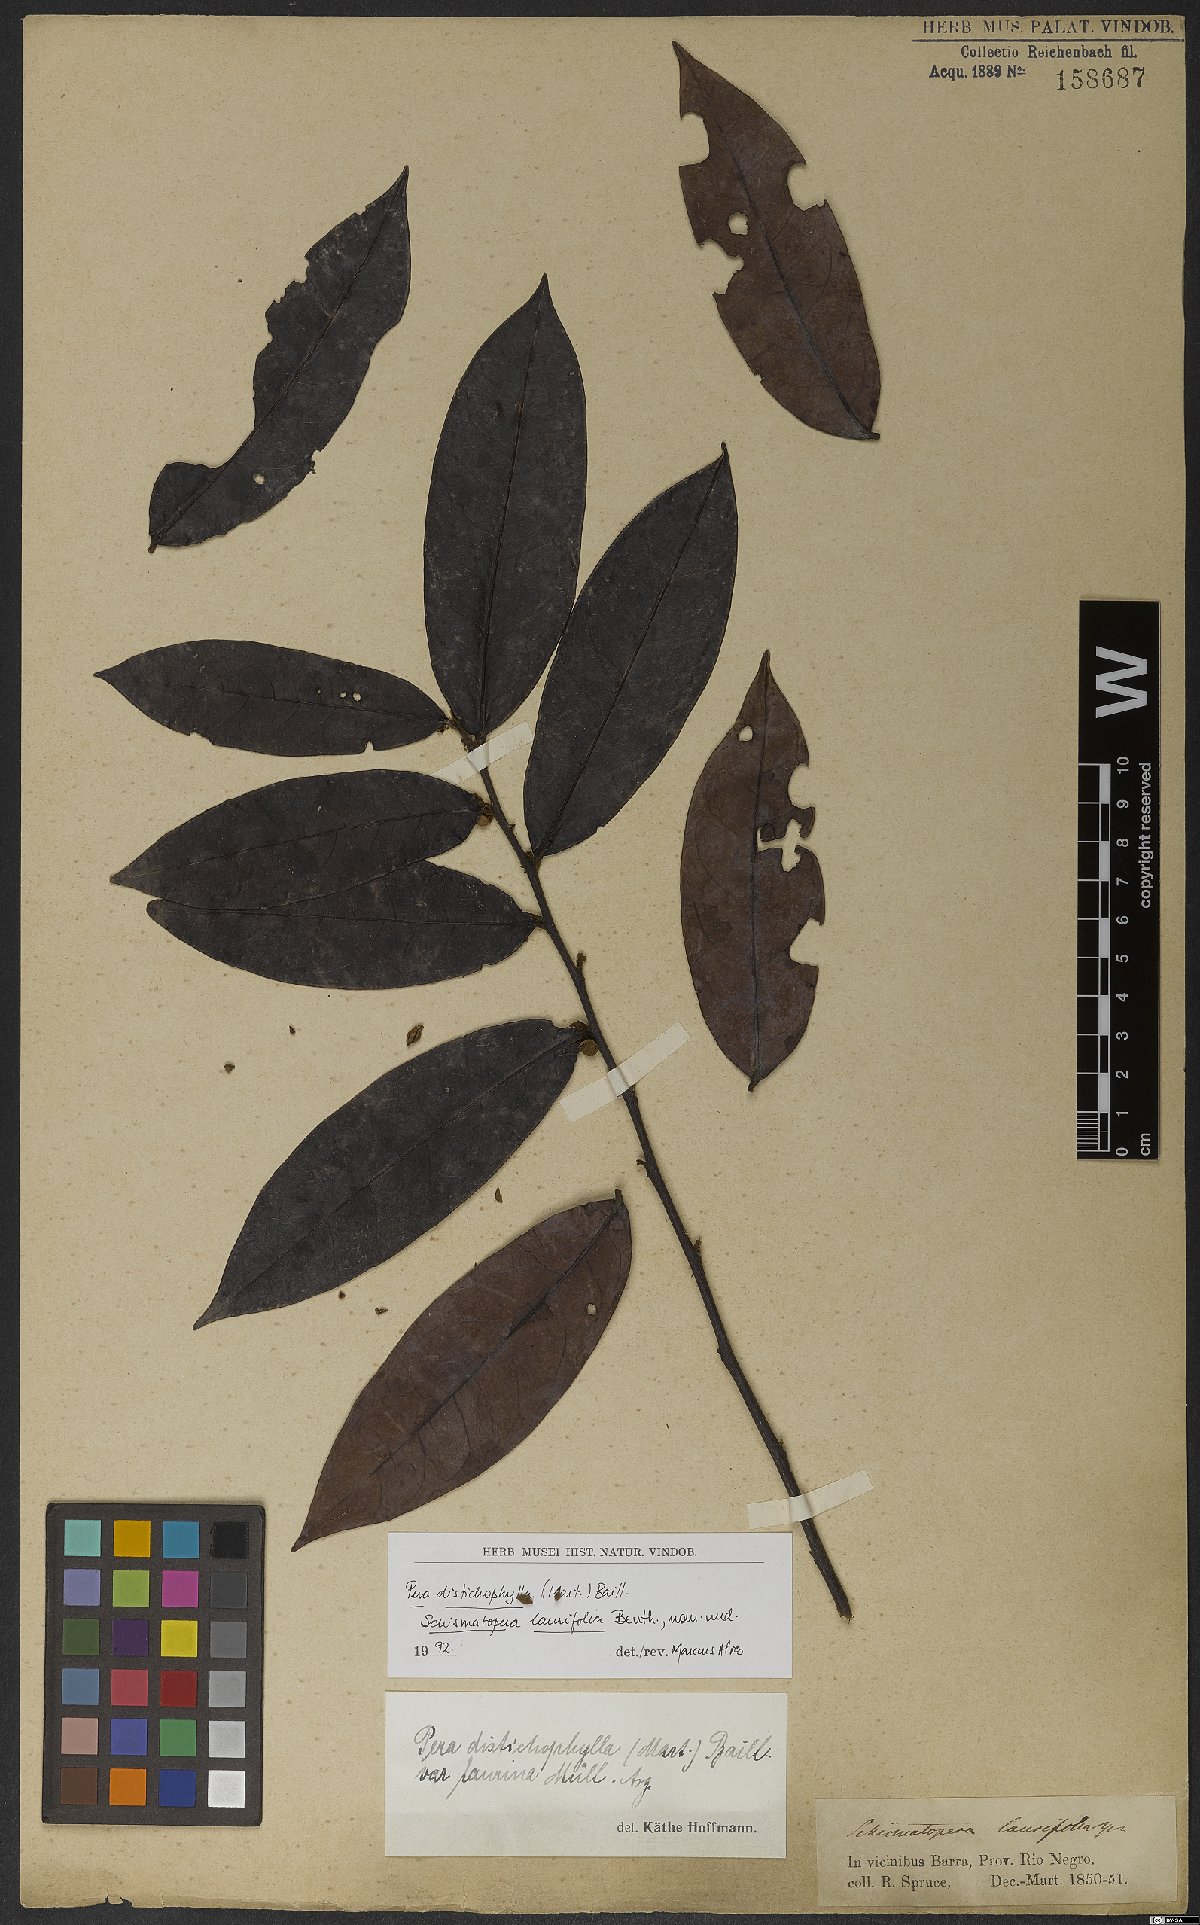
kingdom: Plantae
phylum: Tracheophyta
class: Magnoliopsida
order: Malpighiales
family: Peraceae
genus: Pera
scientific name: Pera distichophylla
